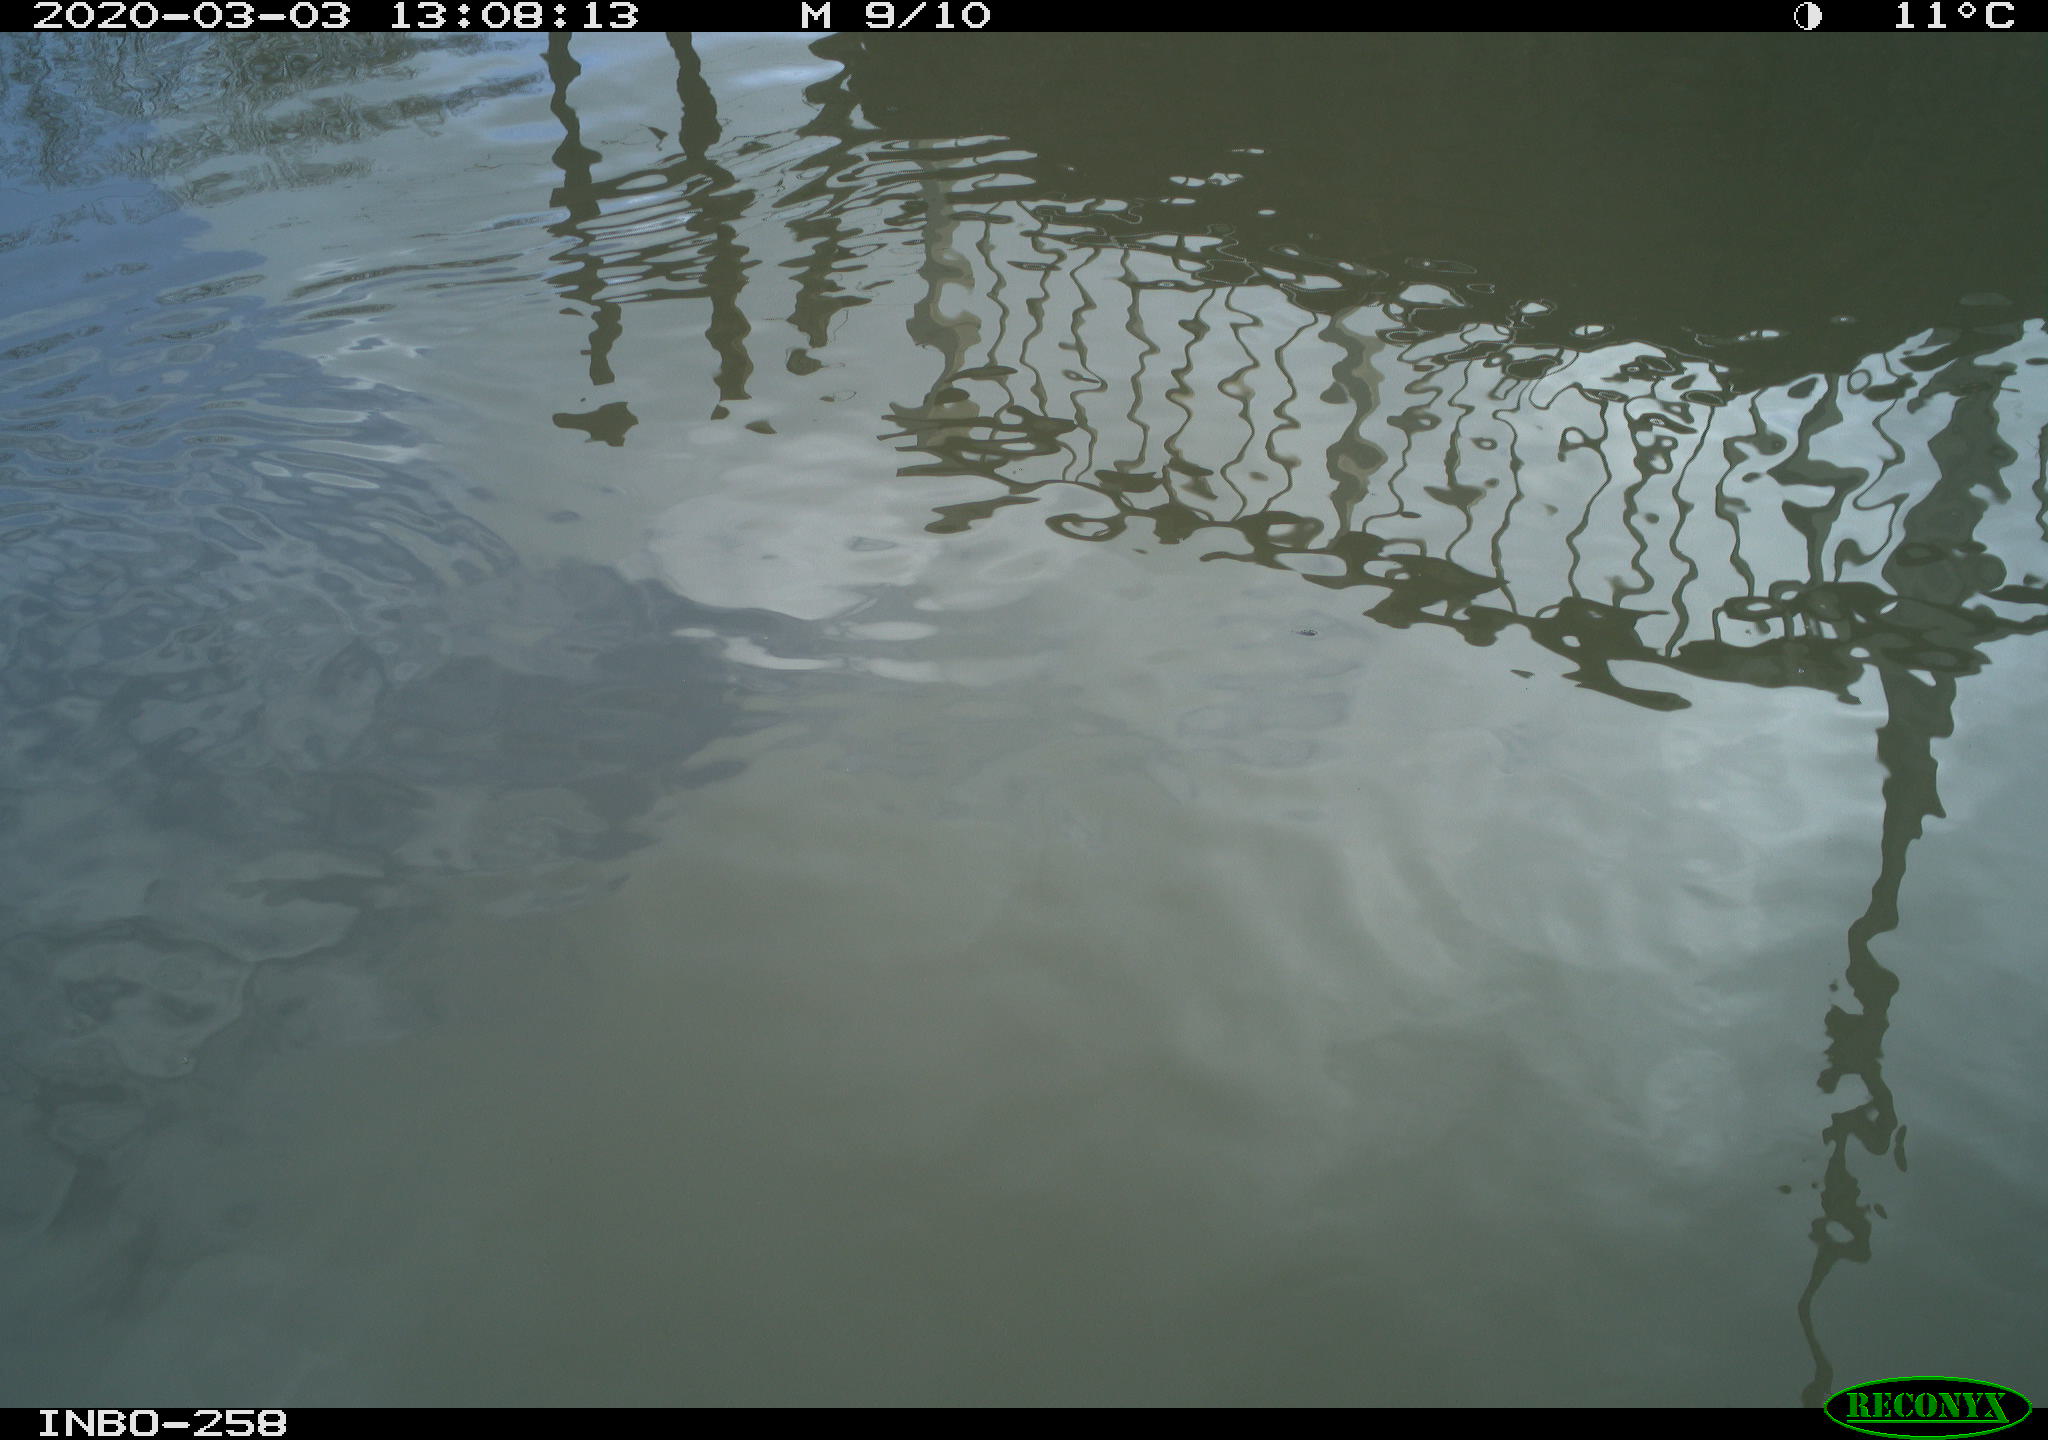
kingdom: Animalia
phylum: Chordata
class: Aves
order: Gruiformes
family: Rallidae
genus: Gallinula
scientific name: Gallinula chloropus
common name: Common moorhen
